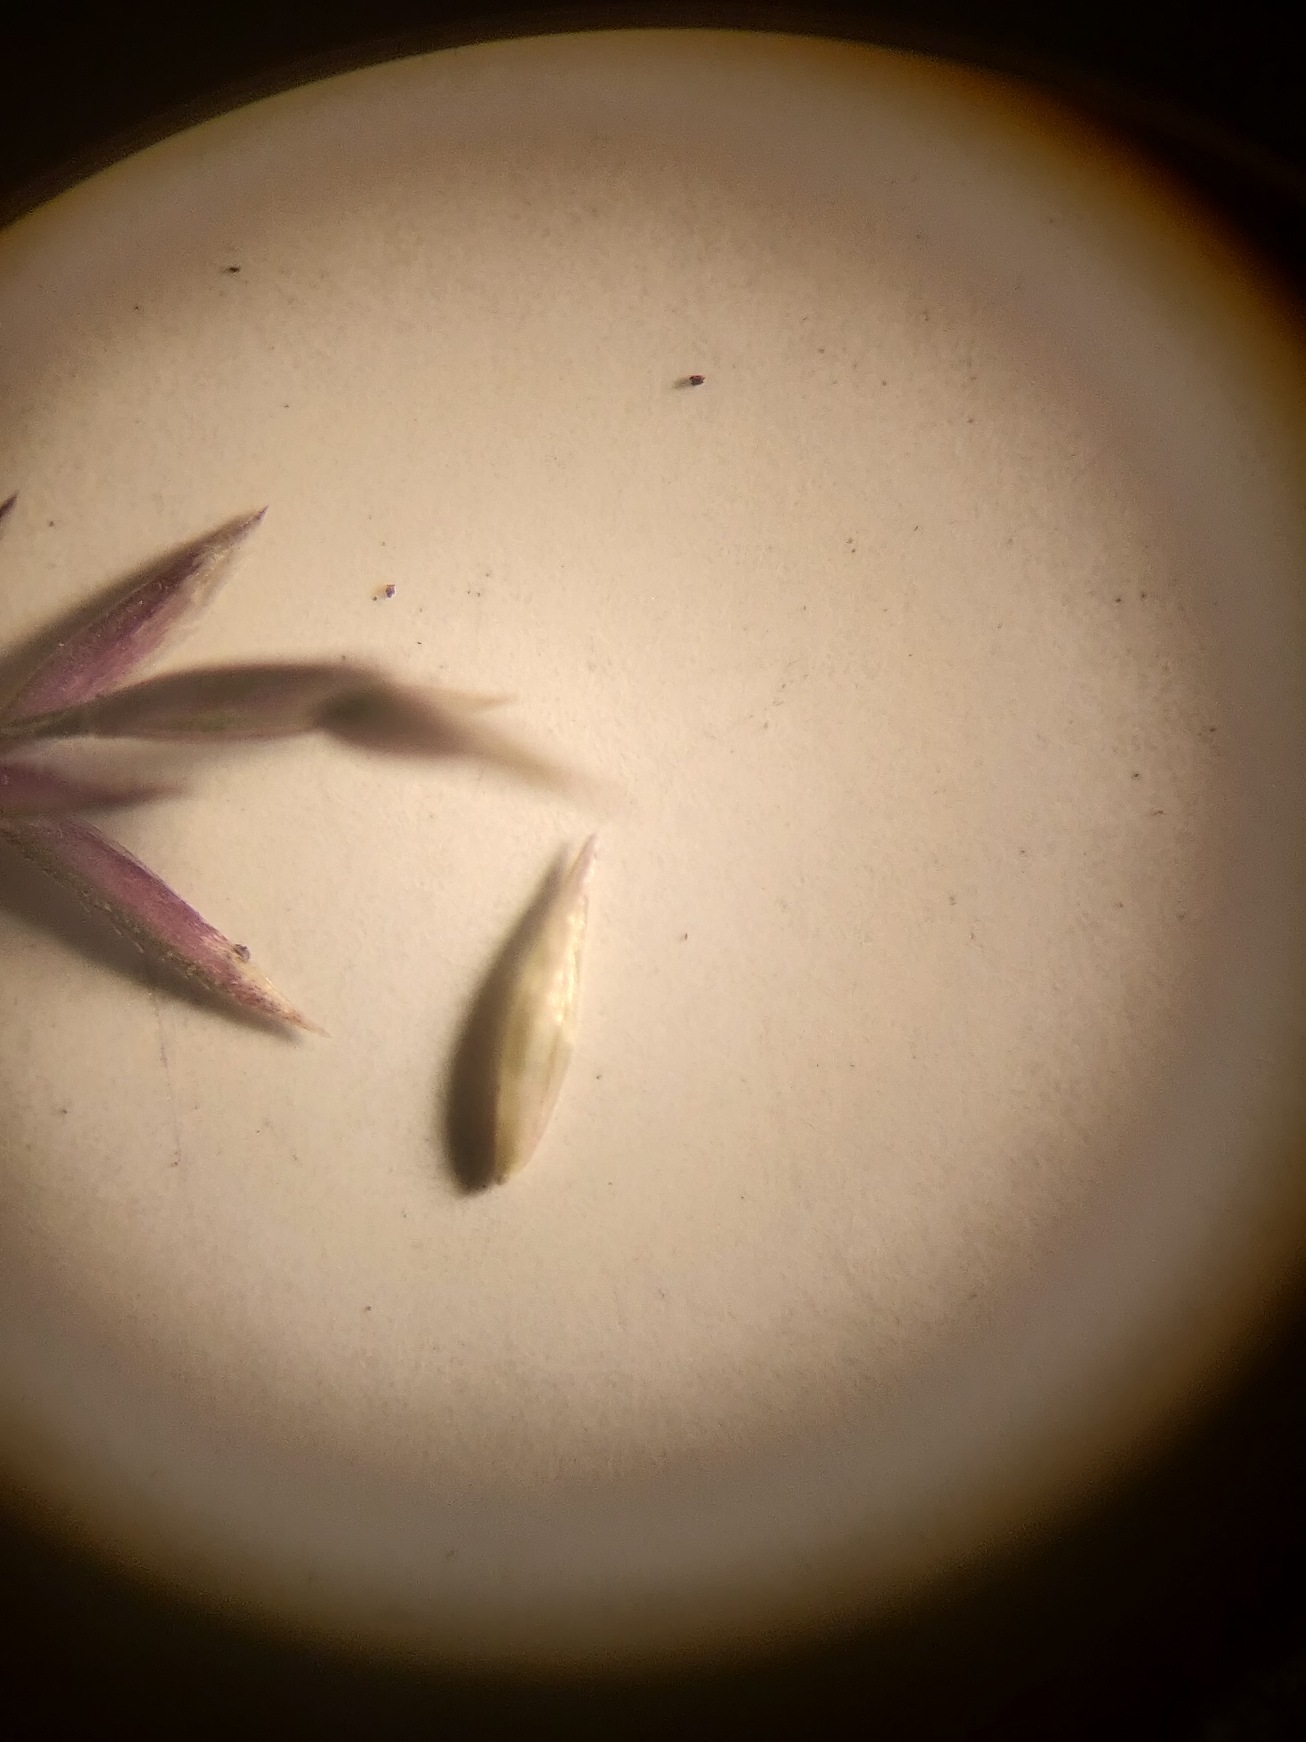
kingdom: Plantae
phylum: Tracheophyta
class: Liliopsida
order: Poales
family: Poaceae
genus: Agrostis
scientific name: Agrostis gigantea
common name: Stortoppet hvene
